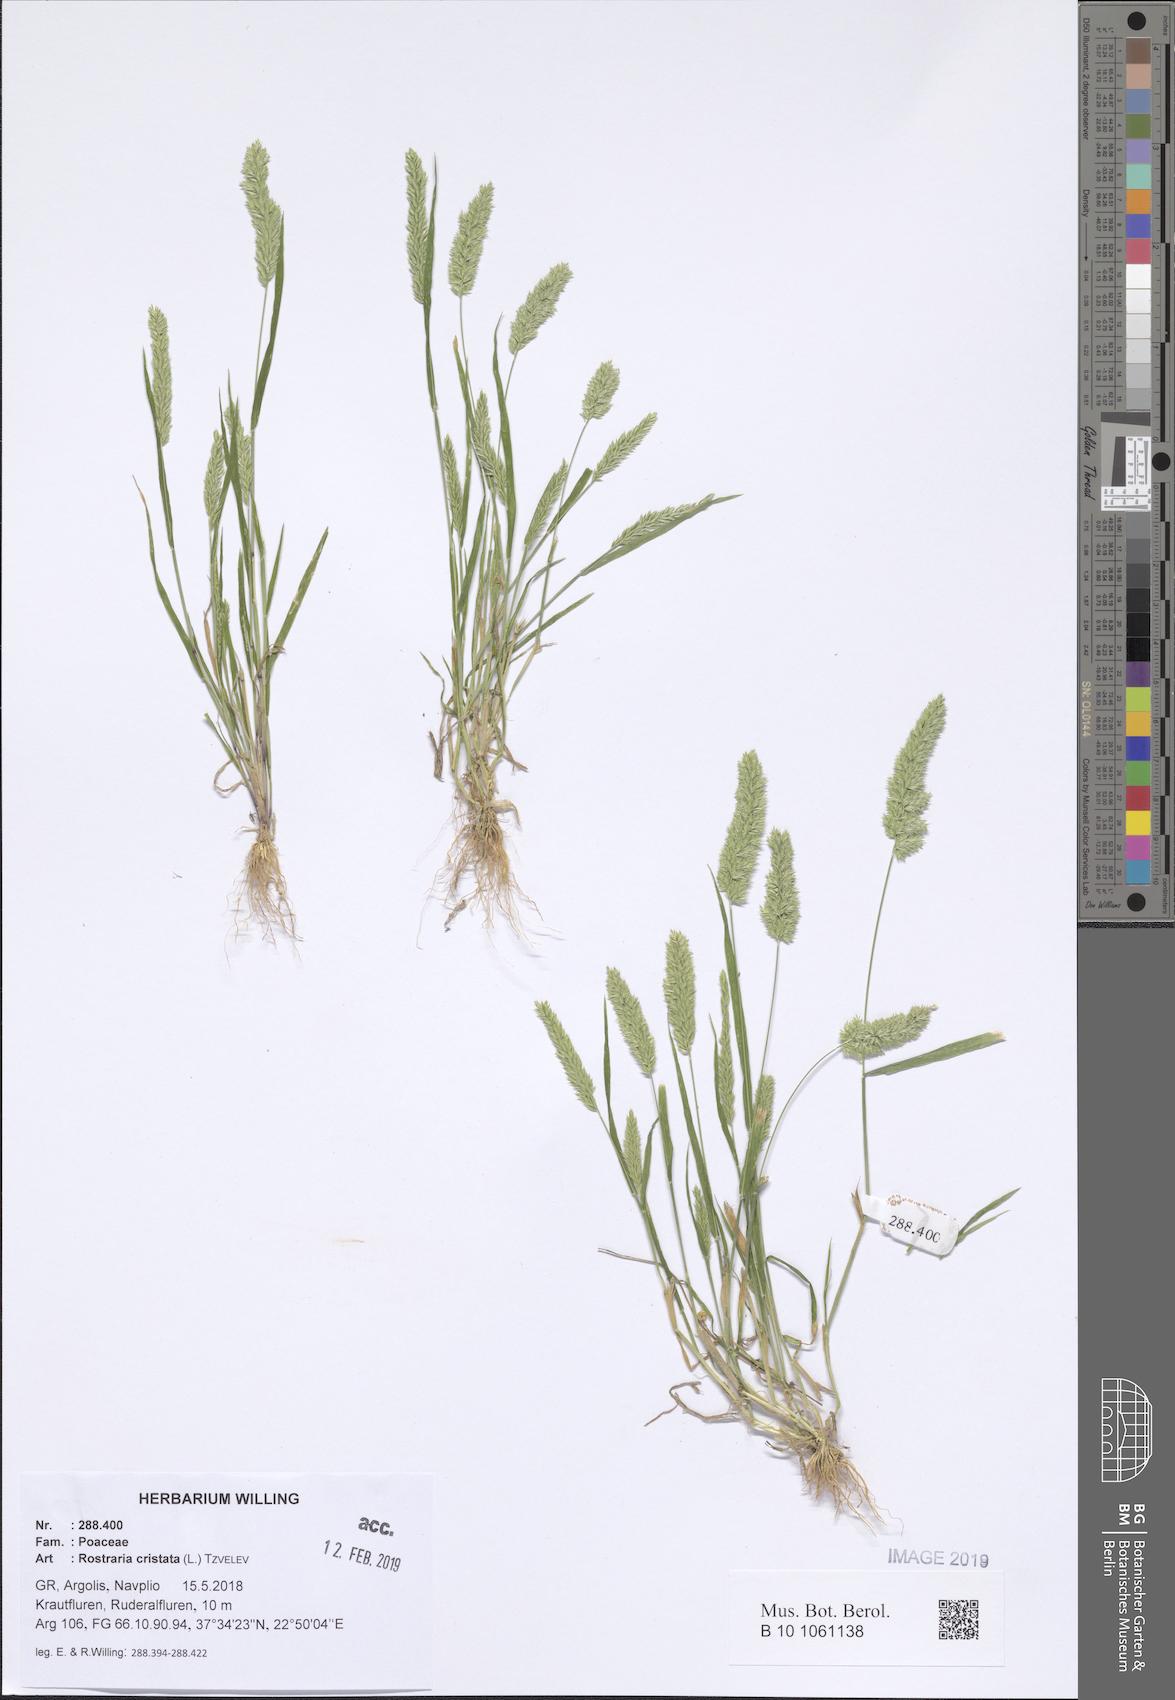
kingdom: Plantae
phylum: Tracheophyta
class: Liliopsida
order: Poales
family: Poaceae
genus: Rostraria
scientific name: Rostraria cristata
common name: Mediterranean hair-grass
